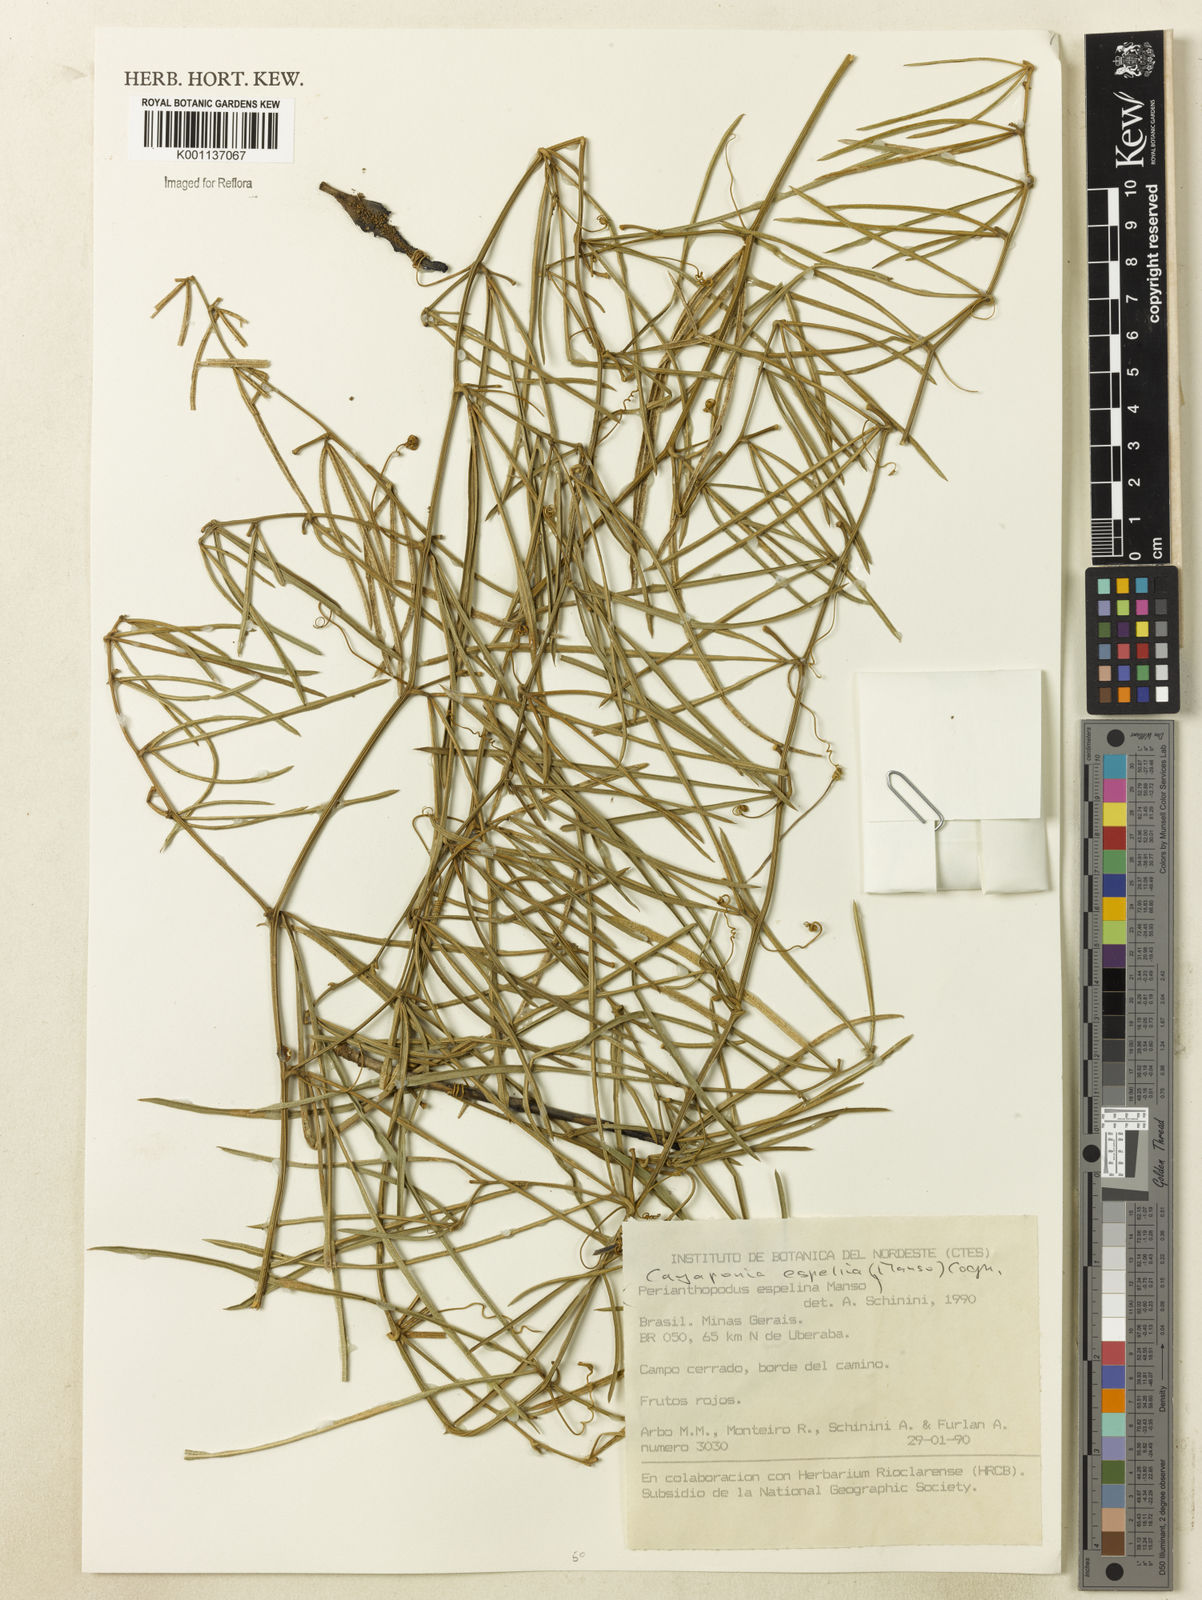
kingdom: Plantae
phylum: Tracheophyta
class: Magnoliopsida
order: Cucurbitales
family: Cucurbitaceae
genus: Cayaponia
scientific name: Cayaponia espelina
